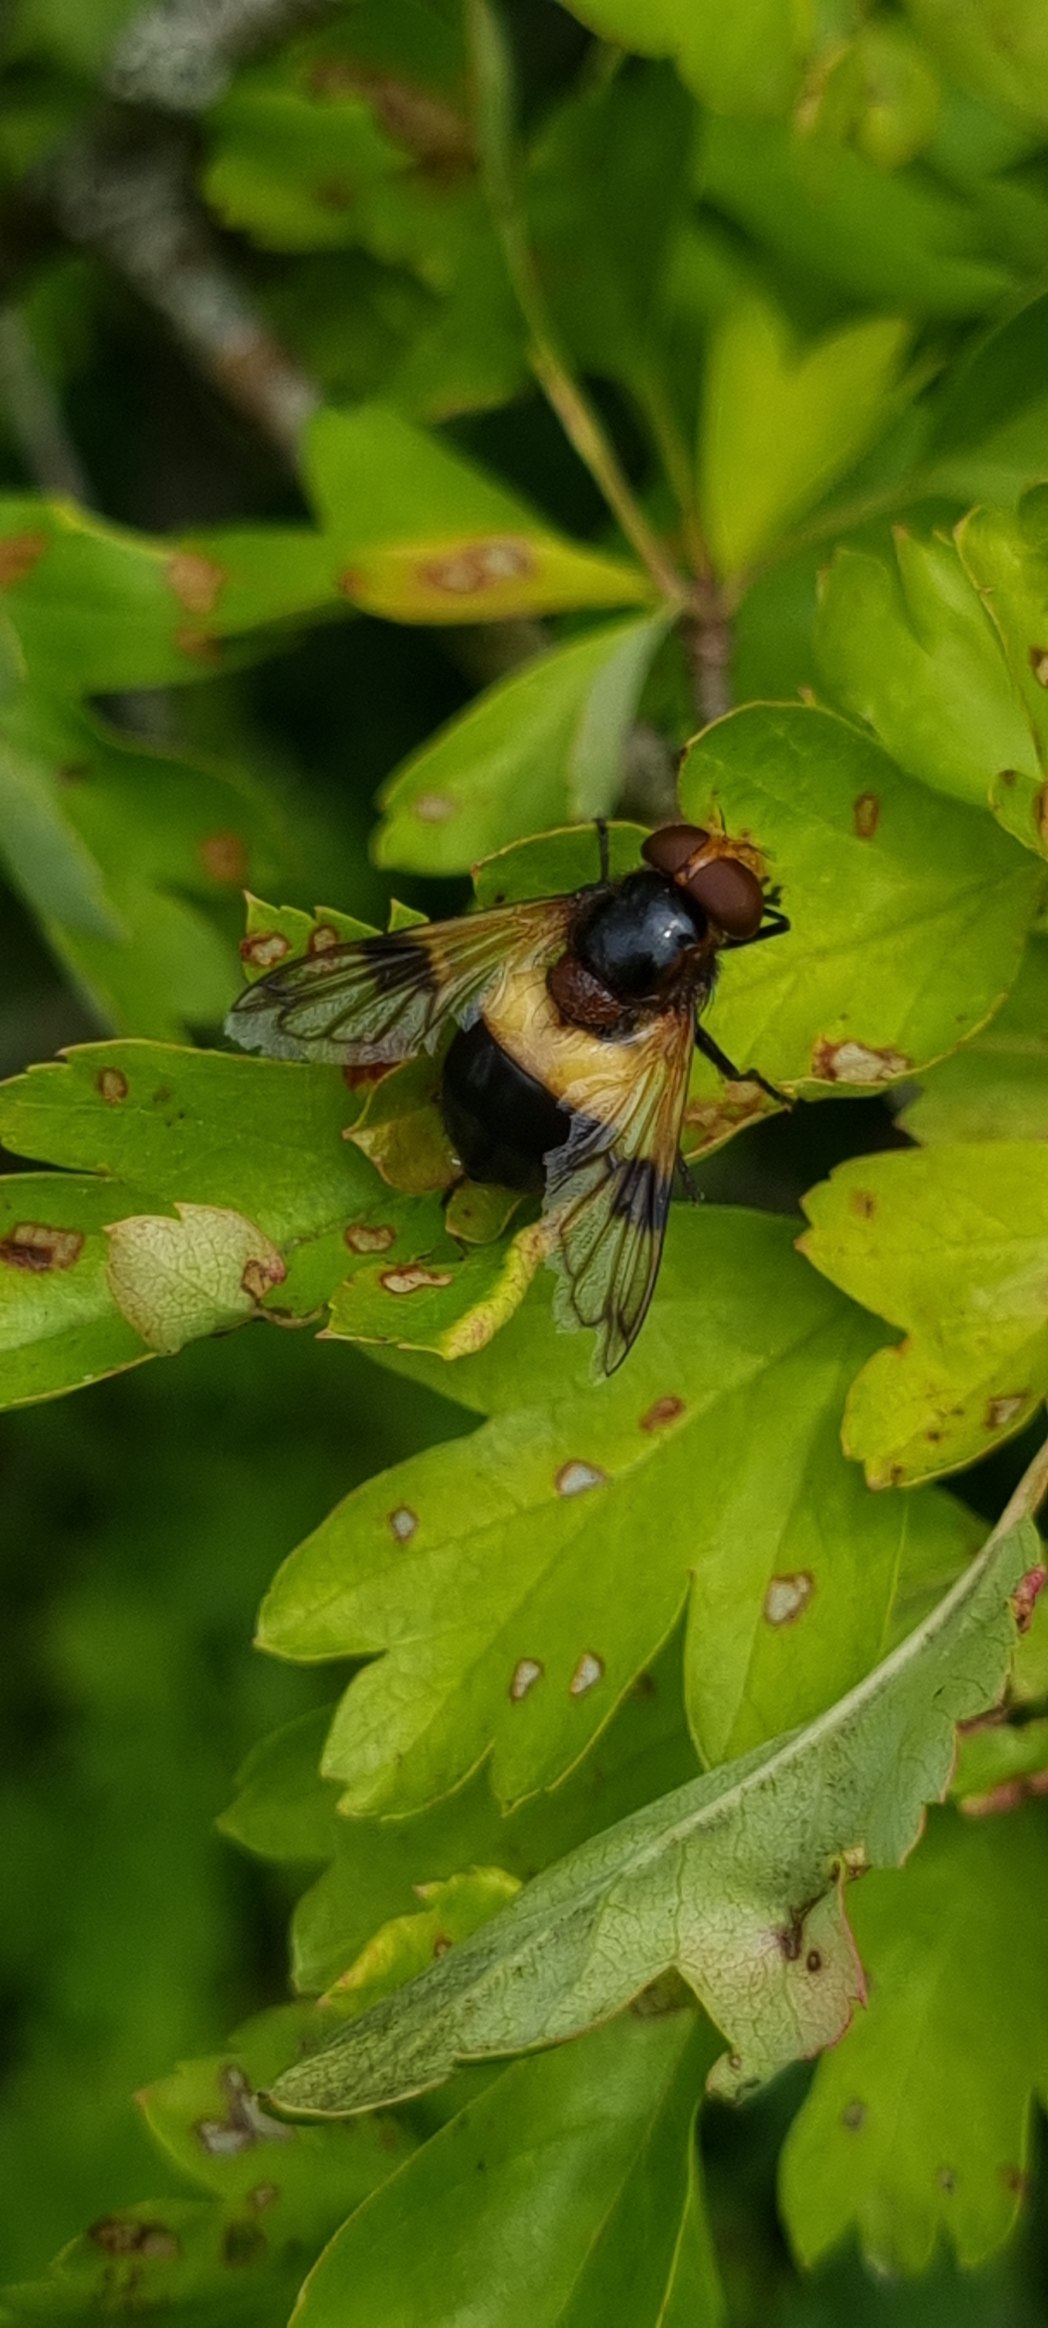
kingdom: Animalia
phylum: Arthropoda
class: Insecta
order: Diptera
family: Syrphidae
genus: Volucella
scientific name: Volucella pellucens
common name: Hvidbåndet humlesvirreflue
